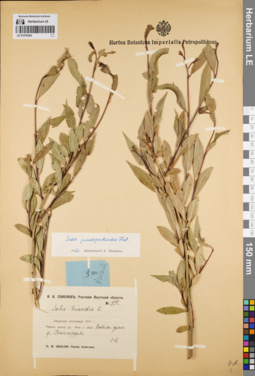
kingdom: Plantae
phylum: Tracheophyta
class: Magnoliopsida
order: Malpighiales
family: Salicaceae
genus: Salix
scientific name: Salix pseudopentandra
